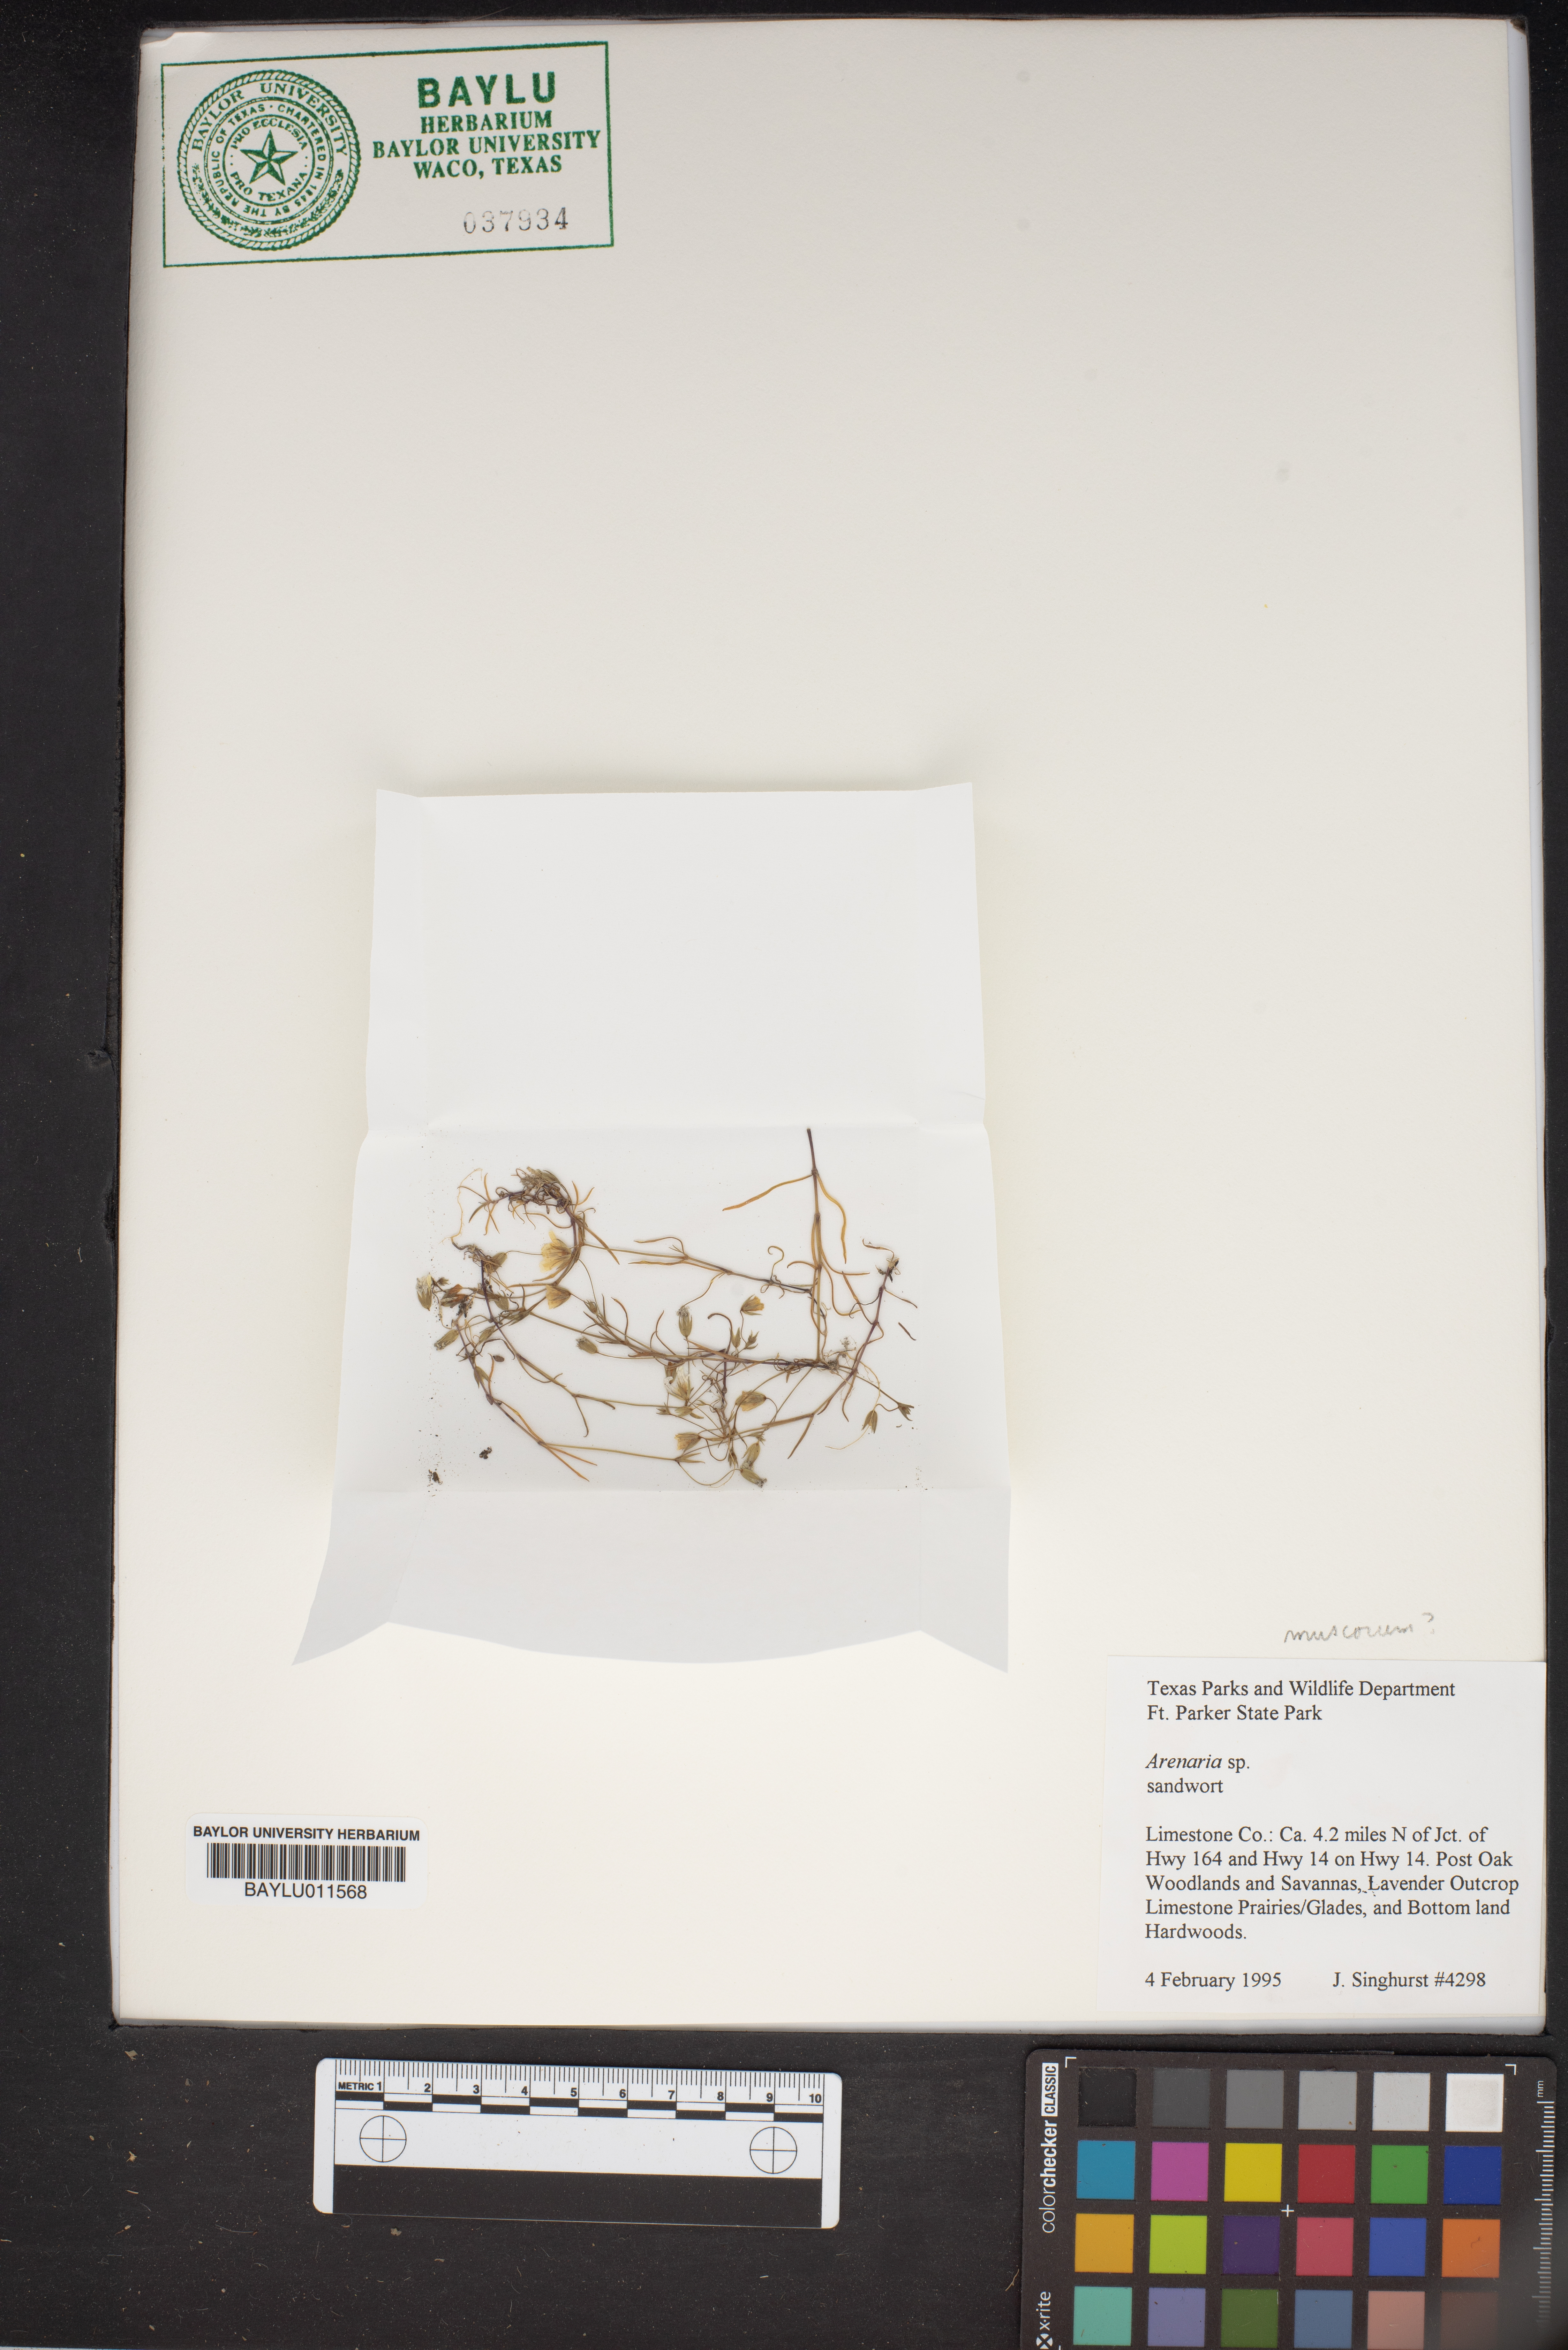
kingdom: Plantae
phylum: Tracheophyta
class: Magnoliopsida
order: Caryophyllales
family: Caryophyllaceae
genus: Arenaria
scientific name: Arenaria
